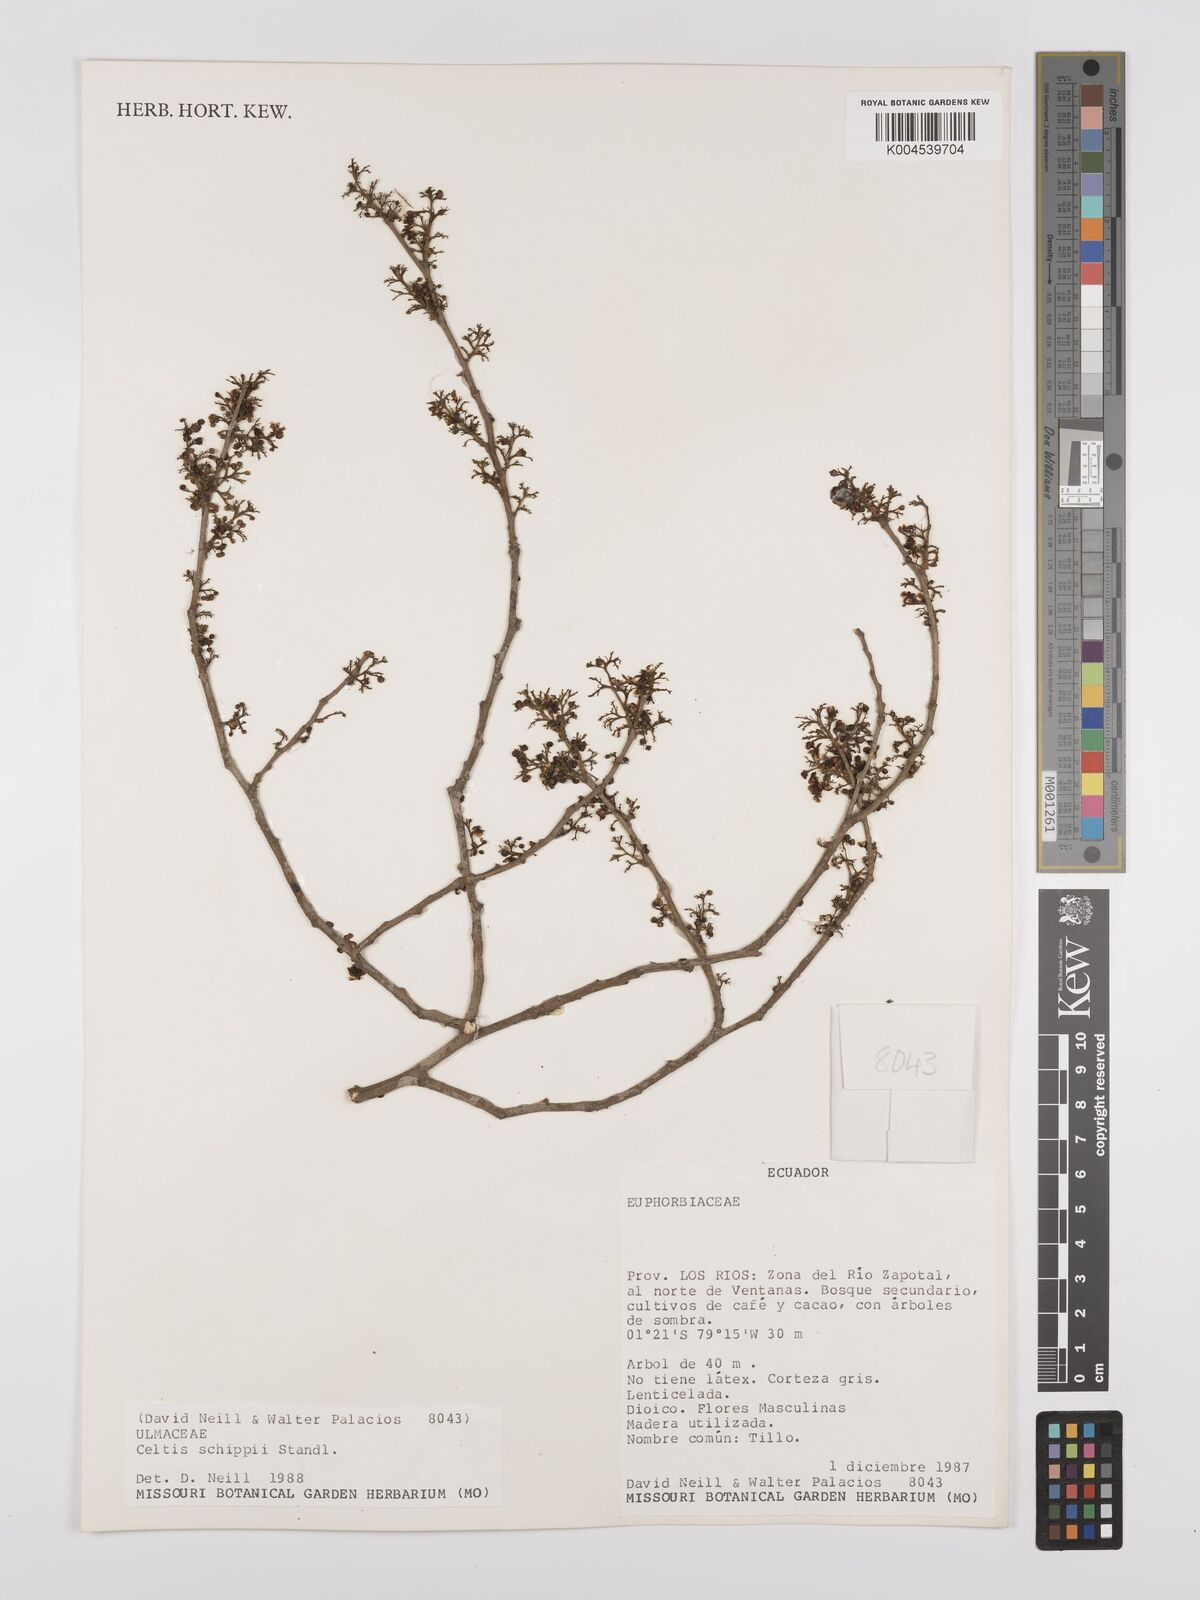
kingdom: Plantae
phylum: Tracheophyta
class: Magnoliopsida
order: Rosales
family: Cannabaceae
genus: Celtis
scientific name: Celtis schippii
